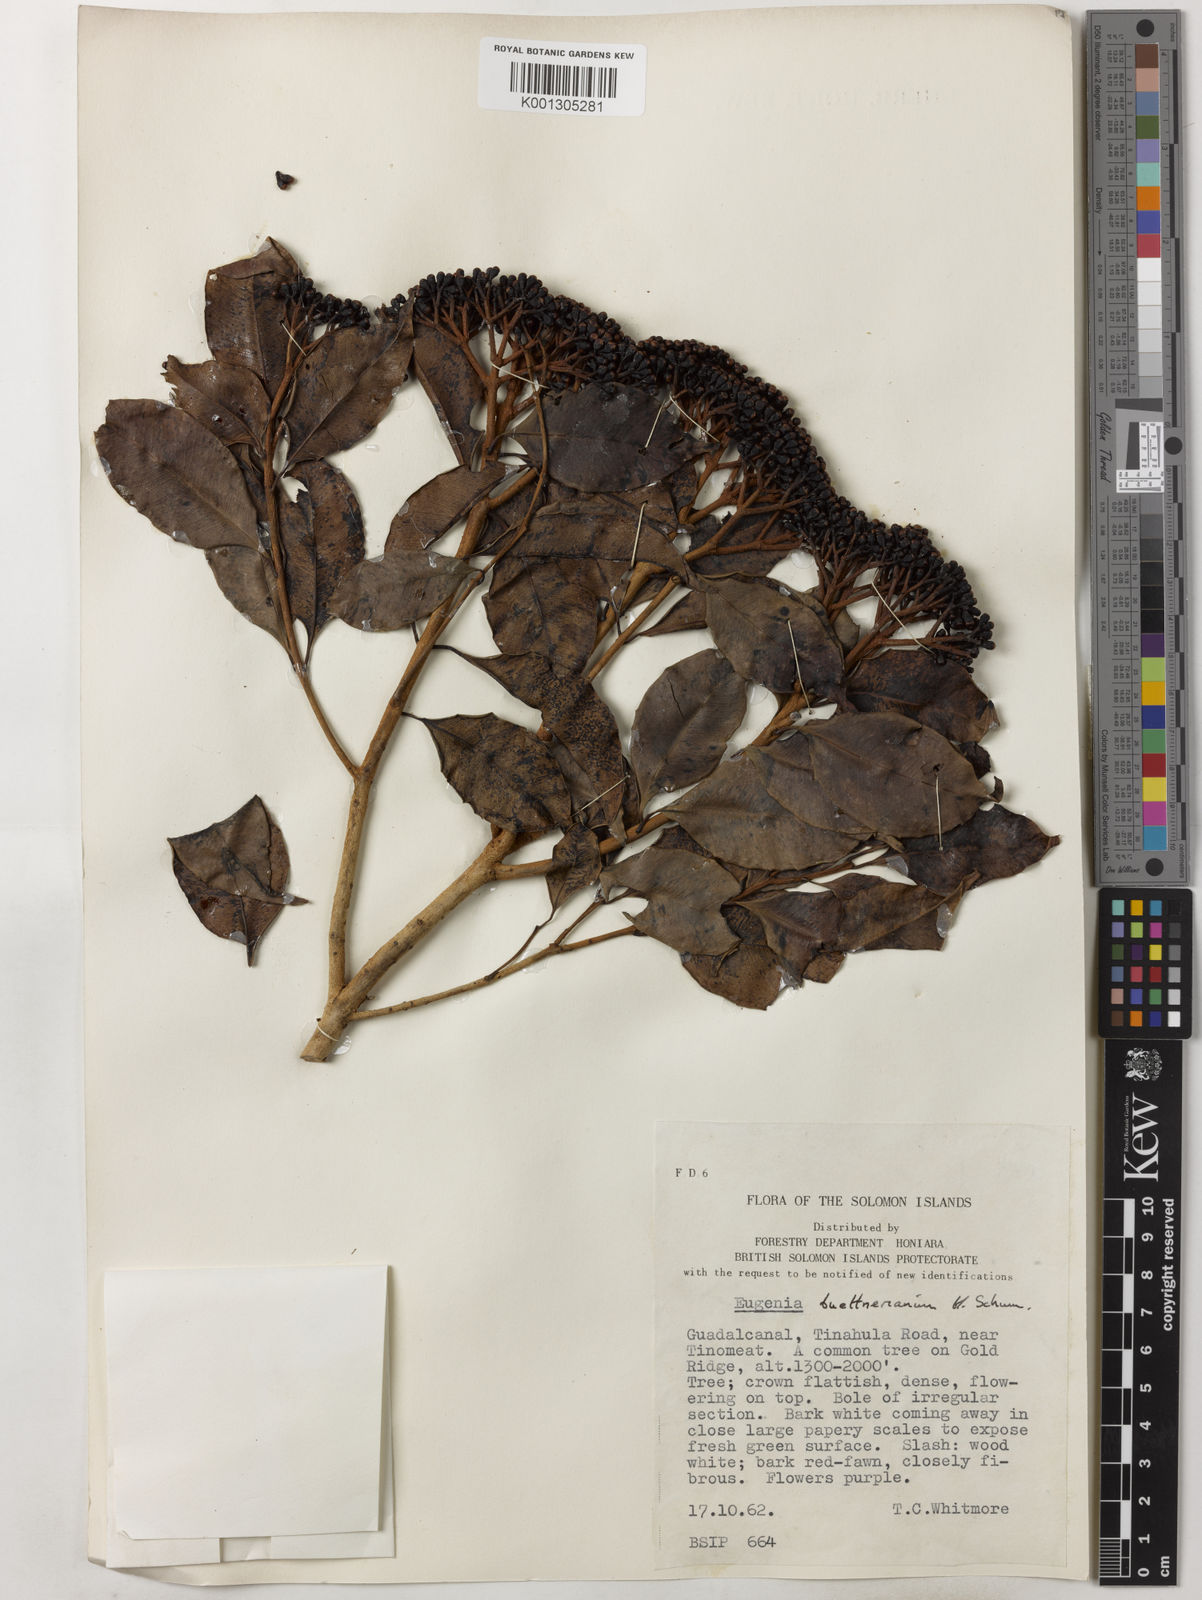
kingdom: Plantae
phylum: Tracheophyta
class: Magnoliopsida
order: Myrtales
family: Myrtaceae
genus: Syzygium
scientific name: Syzygium buettnerianum
